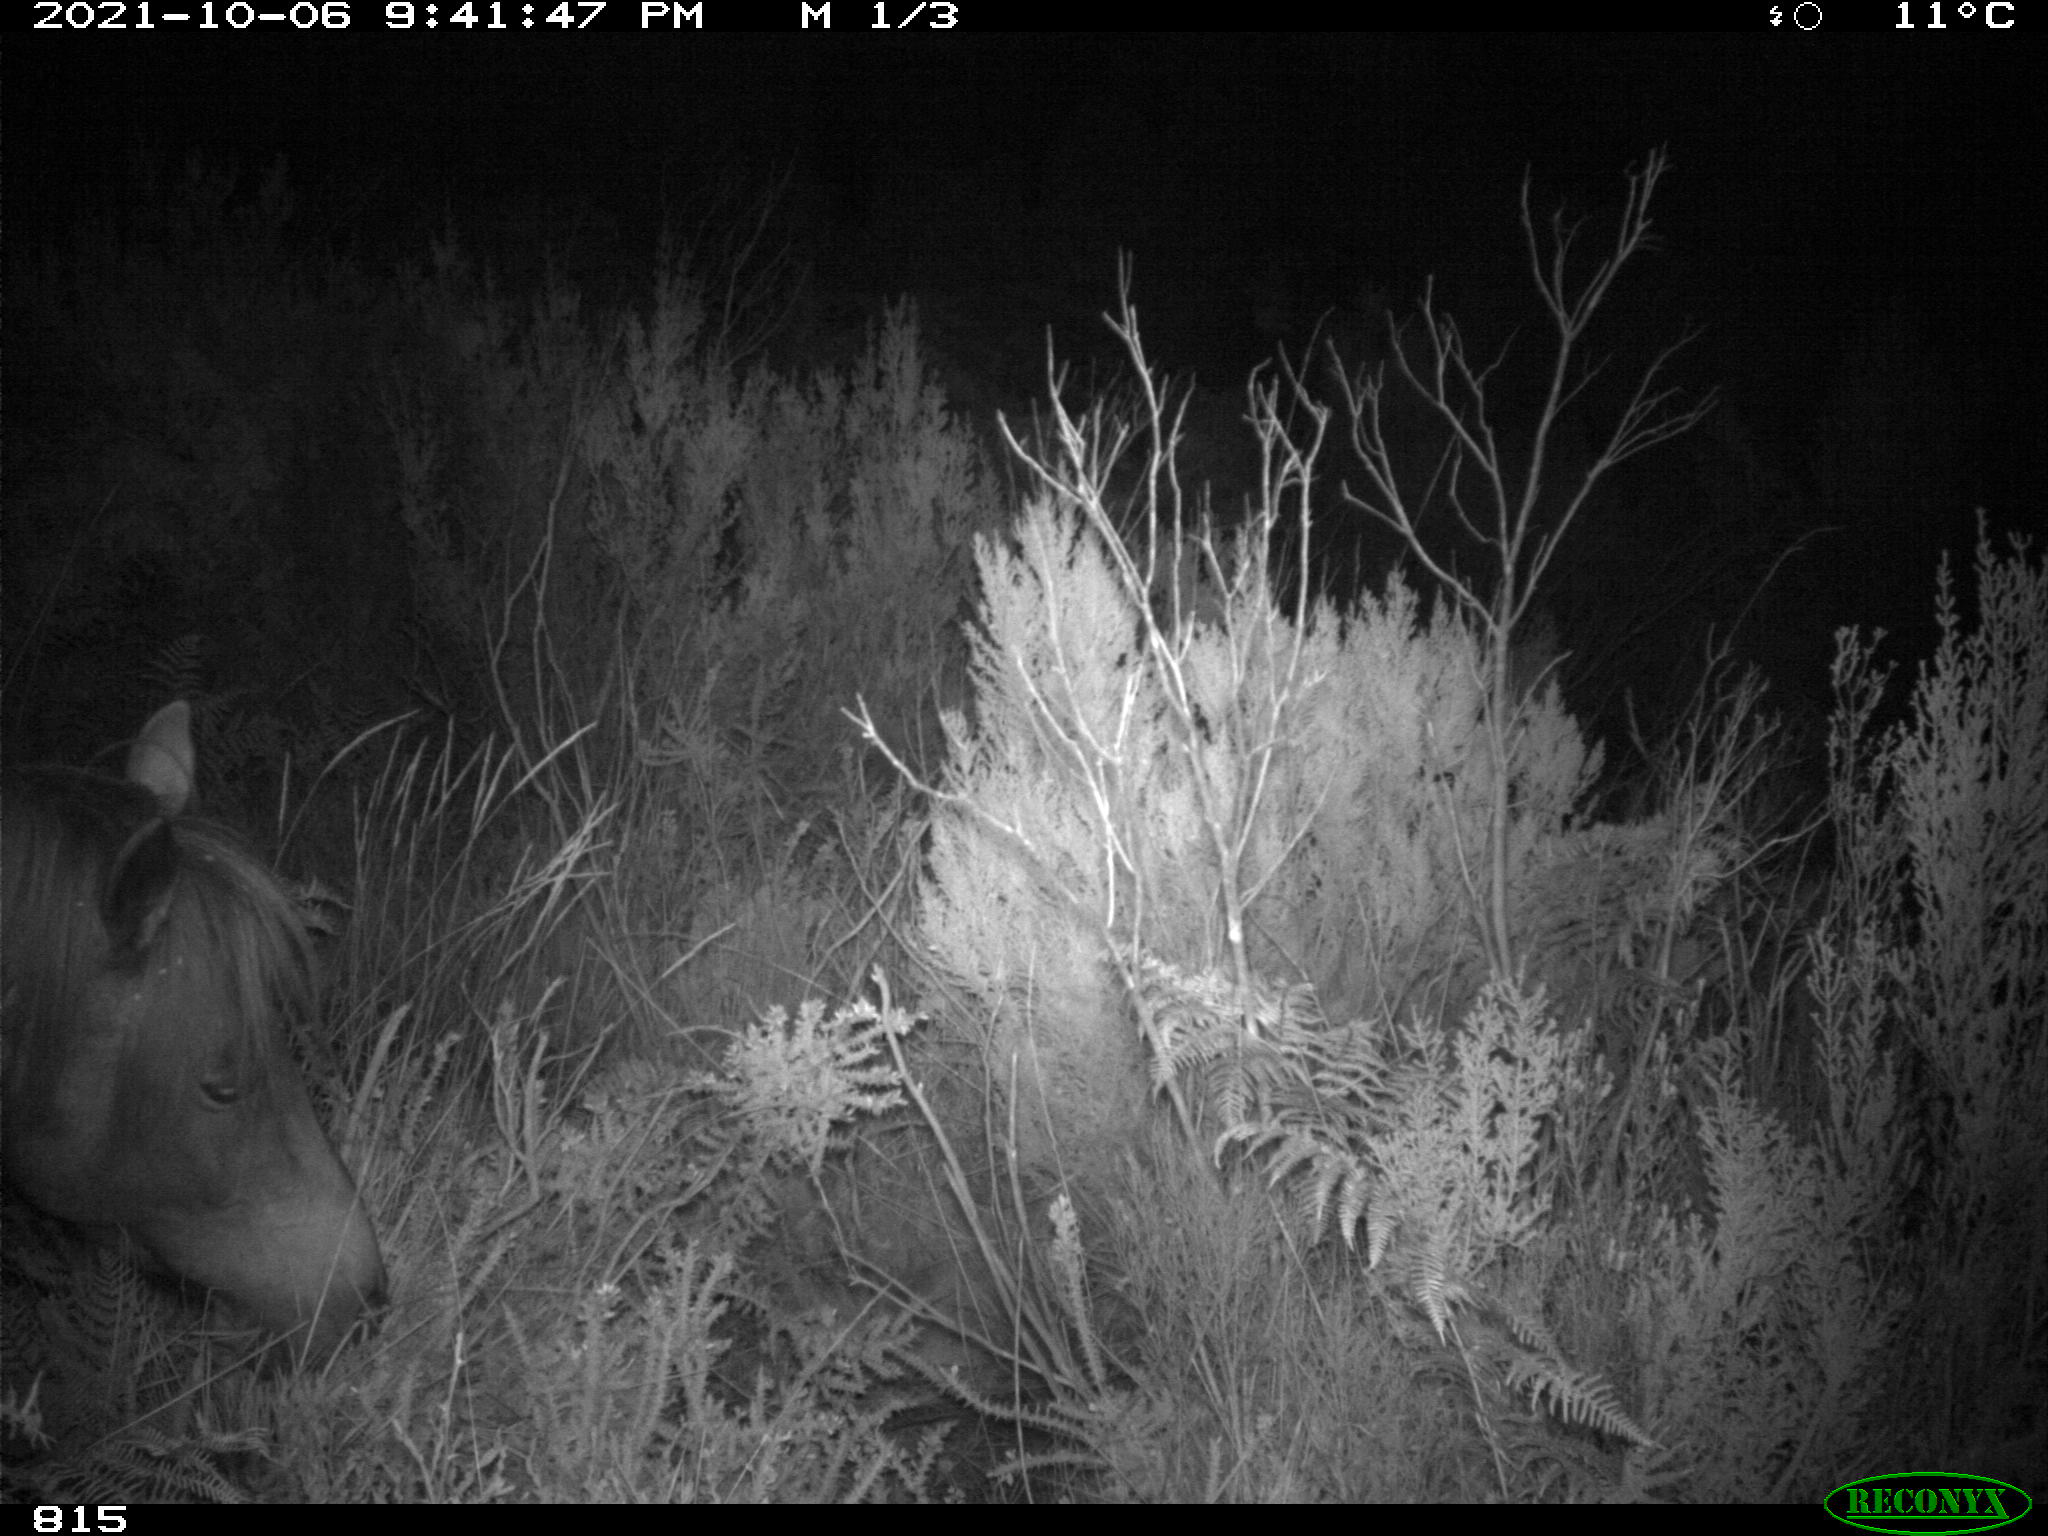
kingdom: Animalia
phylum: Chordata
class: Mammalia
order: Perissodactyla
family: Equidae
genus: Equus
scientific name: Equus caballus
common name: Horse
